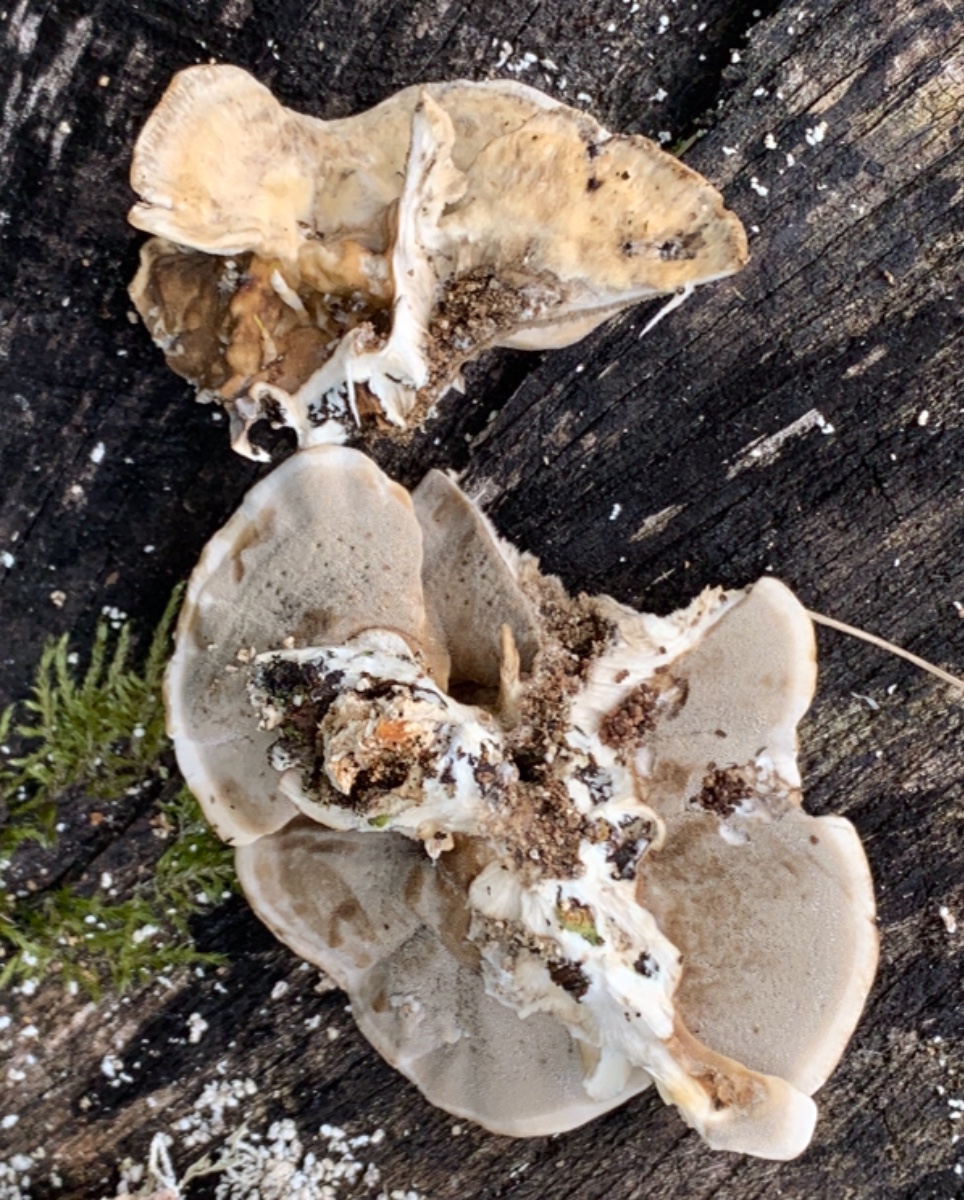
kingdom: Fungi
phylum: Basidiomycota
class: Agaricomycetes
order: Polyporales
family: Phanerochaetaceae
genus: Bjerkandera
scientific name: Bjerkandera adusta
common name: sveden sodporesvamp
